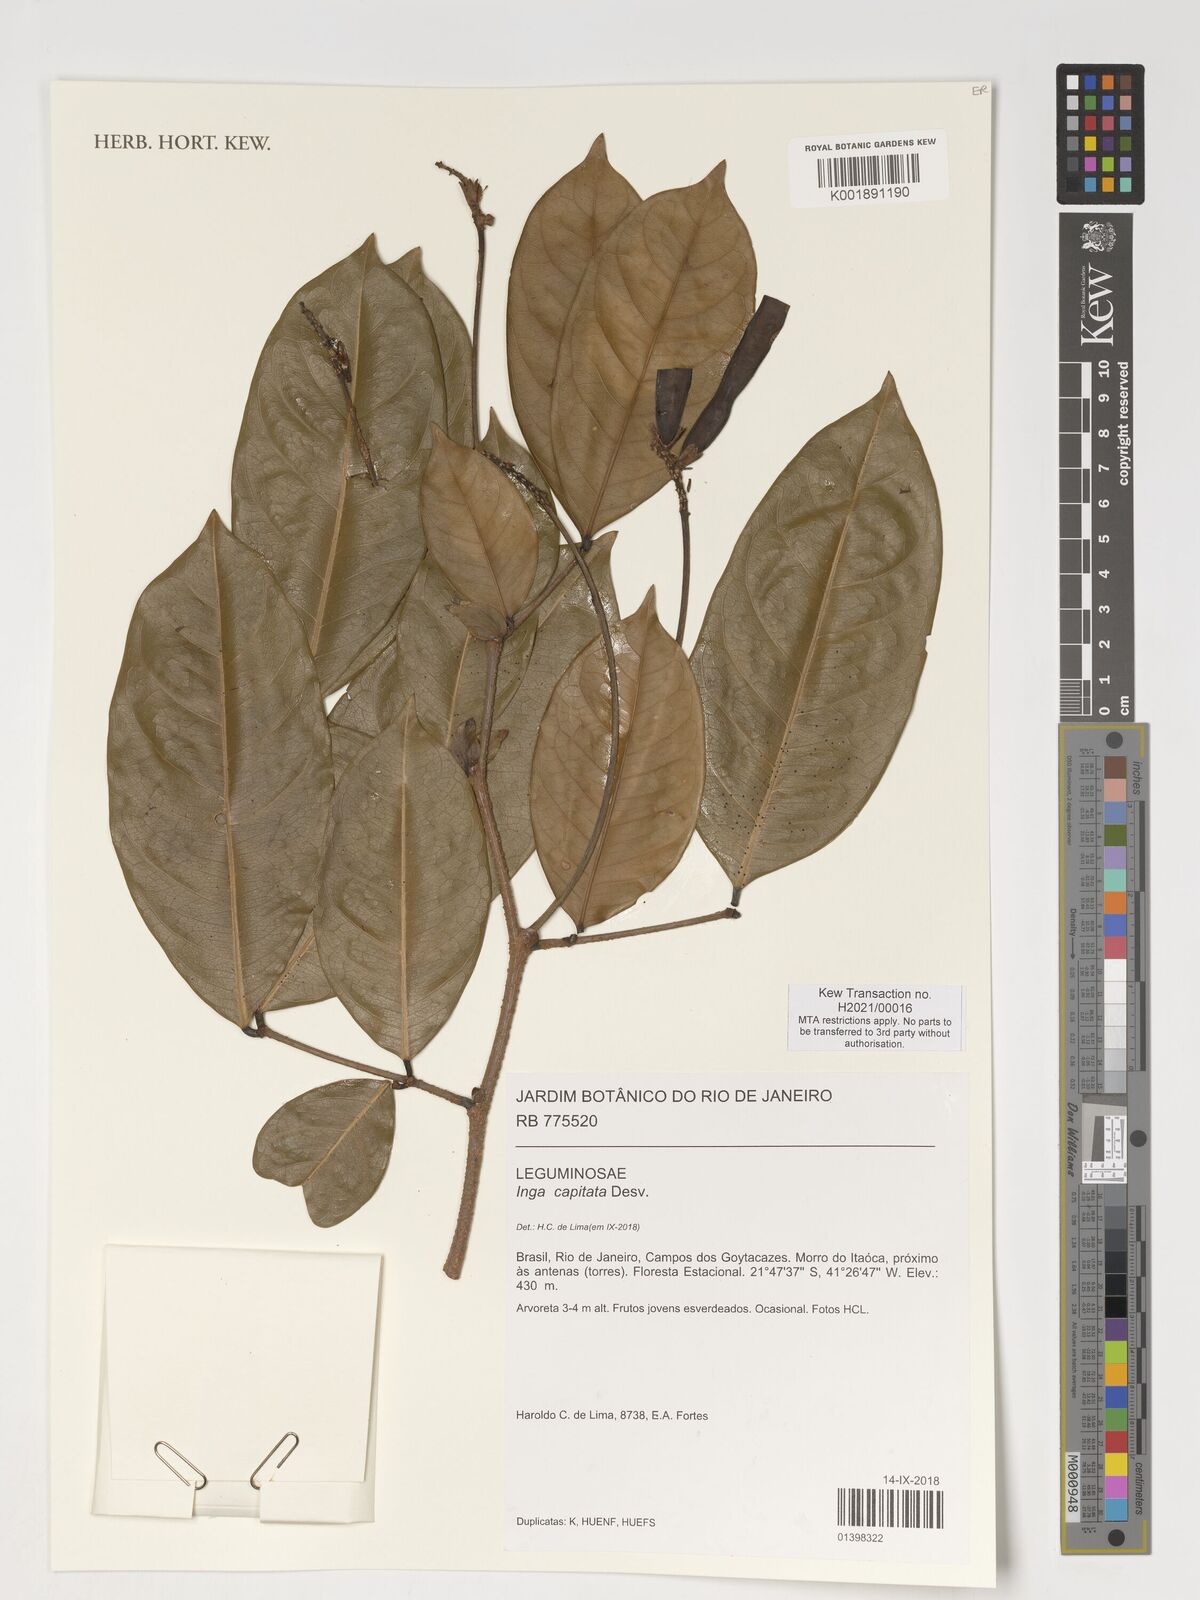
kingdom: Plantae
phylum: Tracheophyta
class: Magnoliopsida
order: Fabales
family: Fabaceae
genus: Inga
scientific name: Inga capitata
